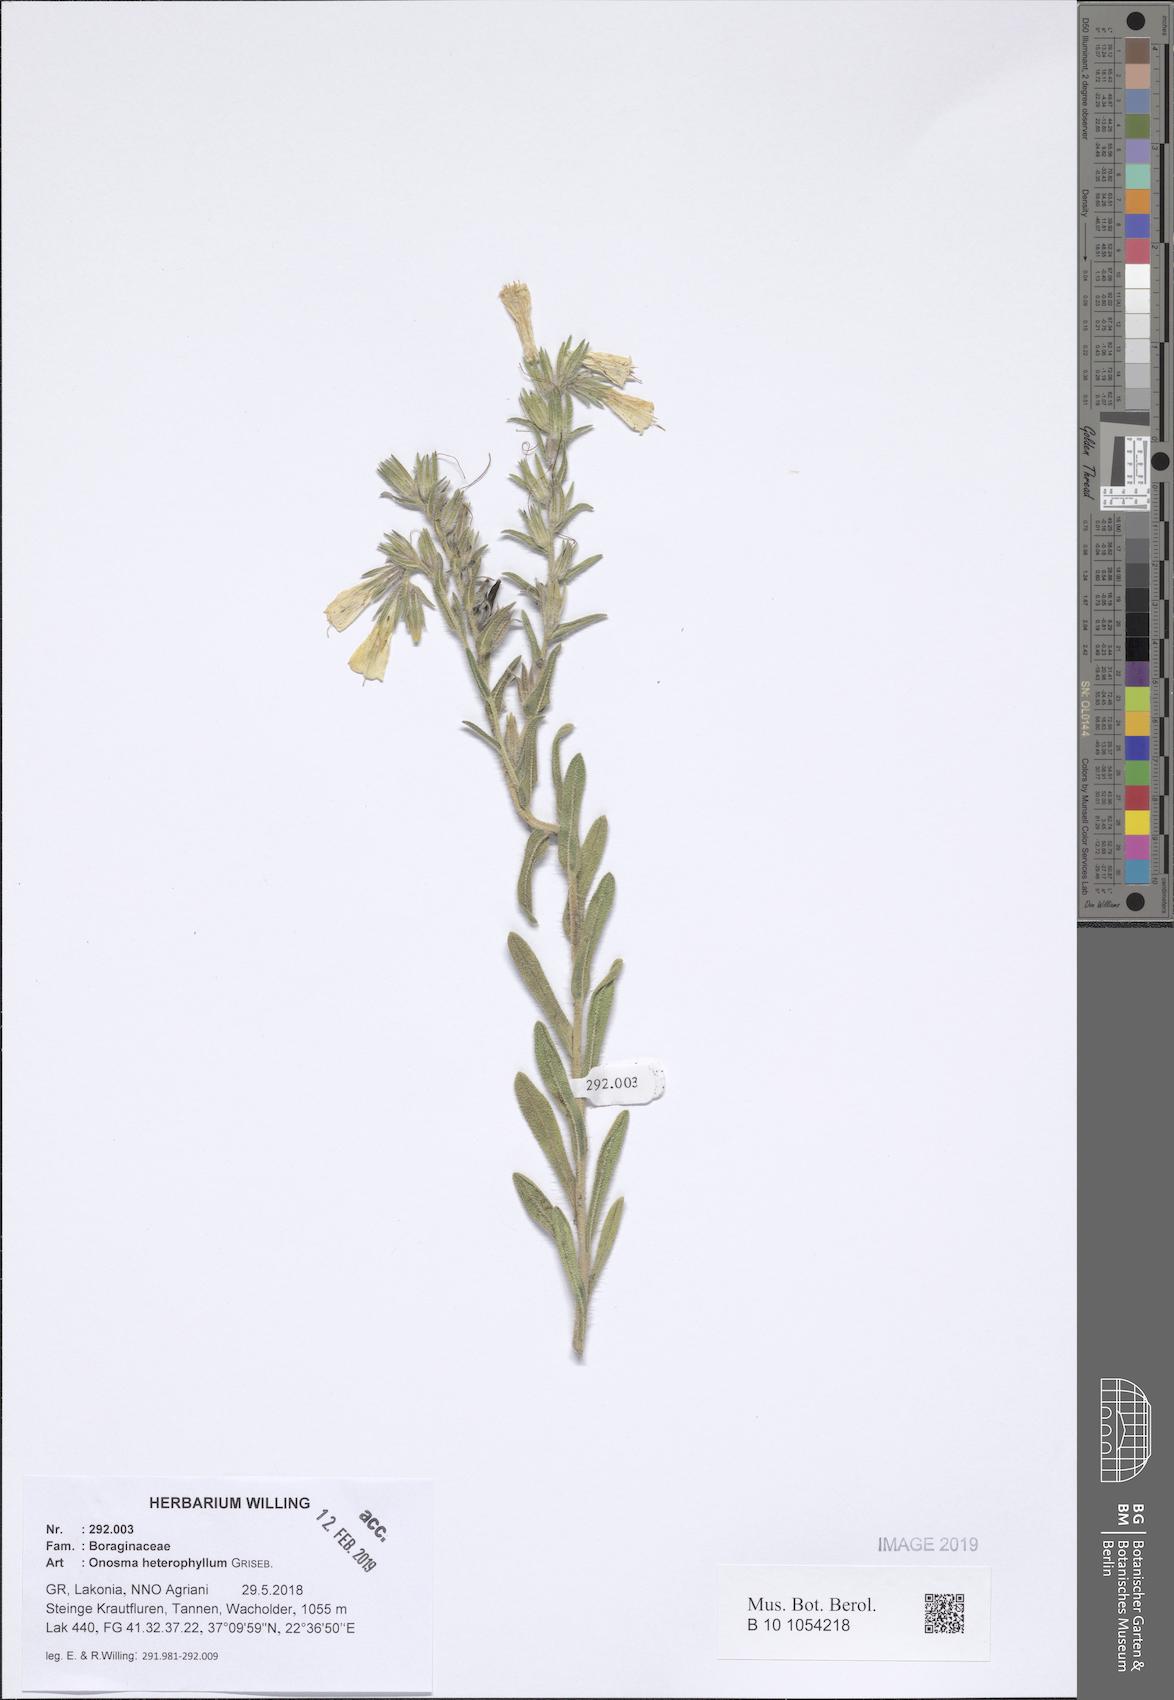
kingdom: Plantae
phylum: Tracheophyta
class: Magnoliopsida
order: Boraginales
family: Boraginaceae
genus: Onosma
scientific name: Onosma heterophylla
